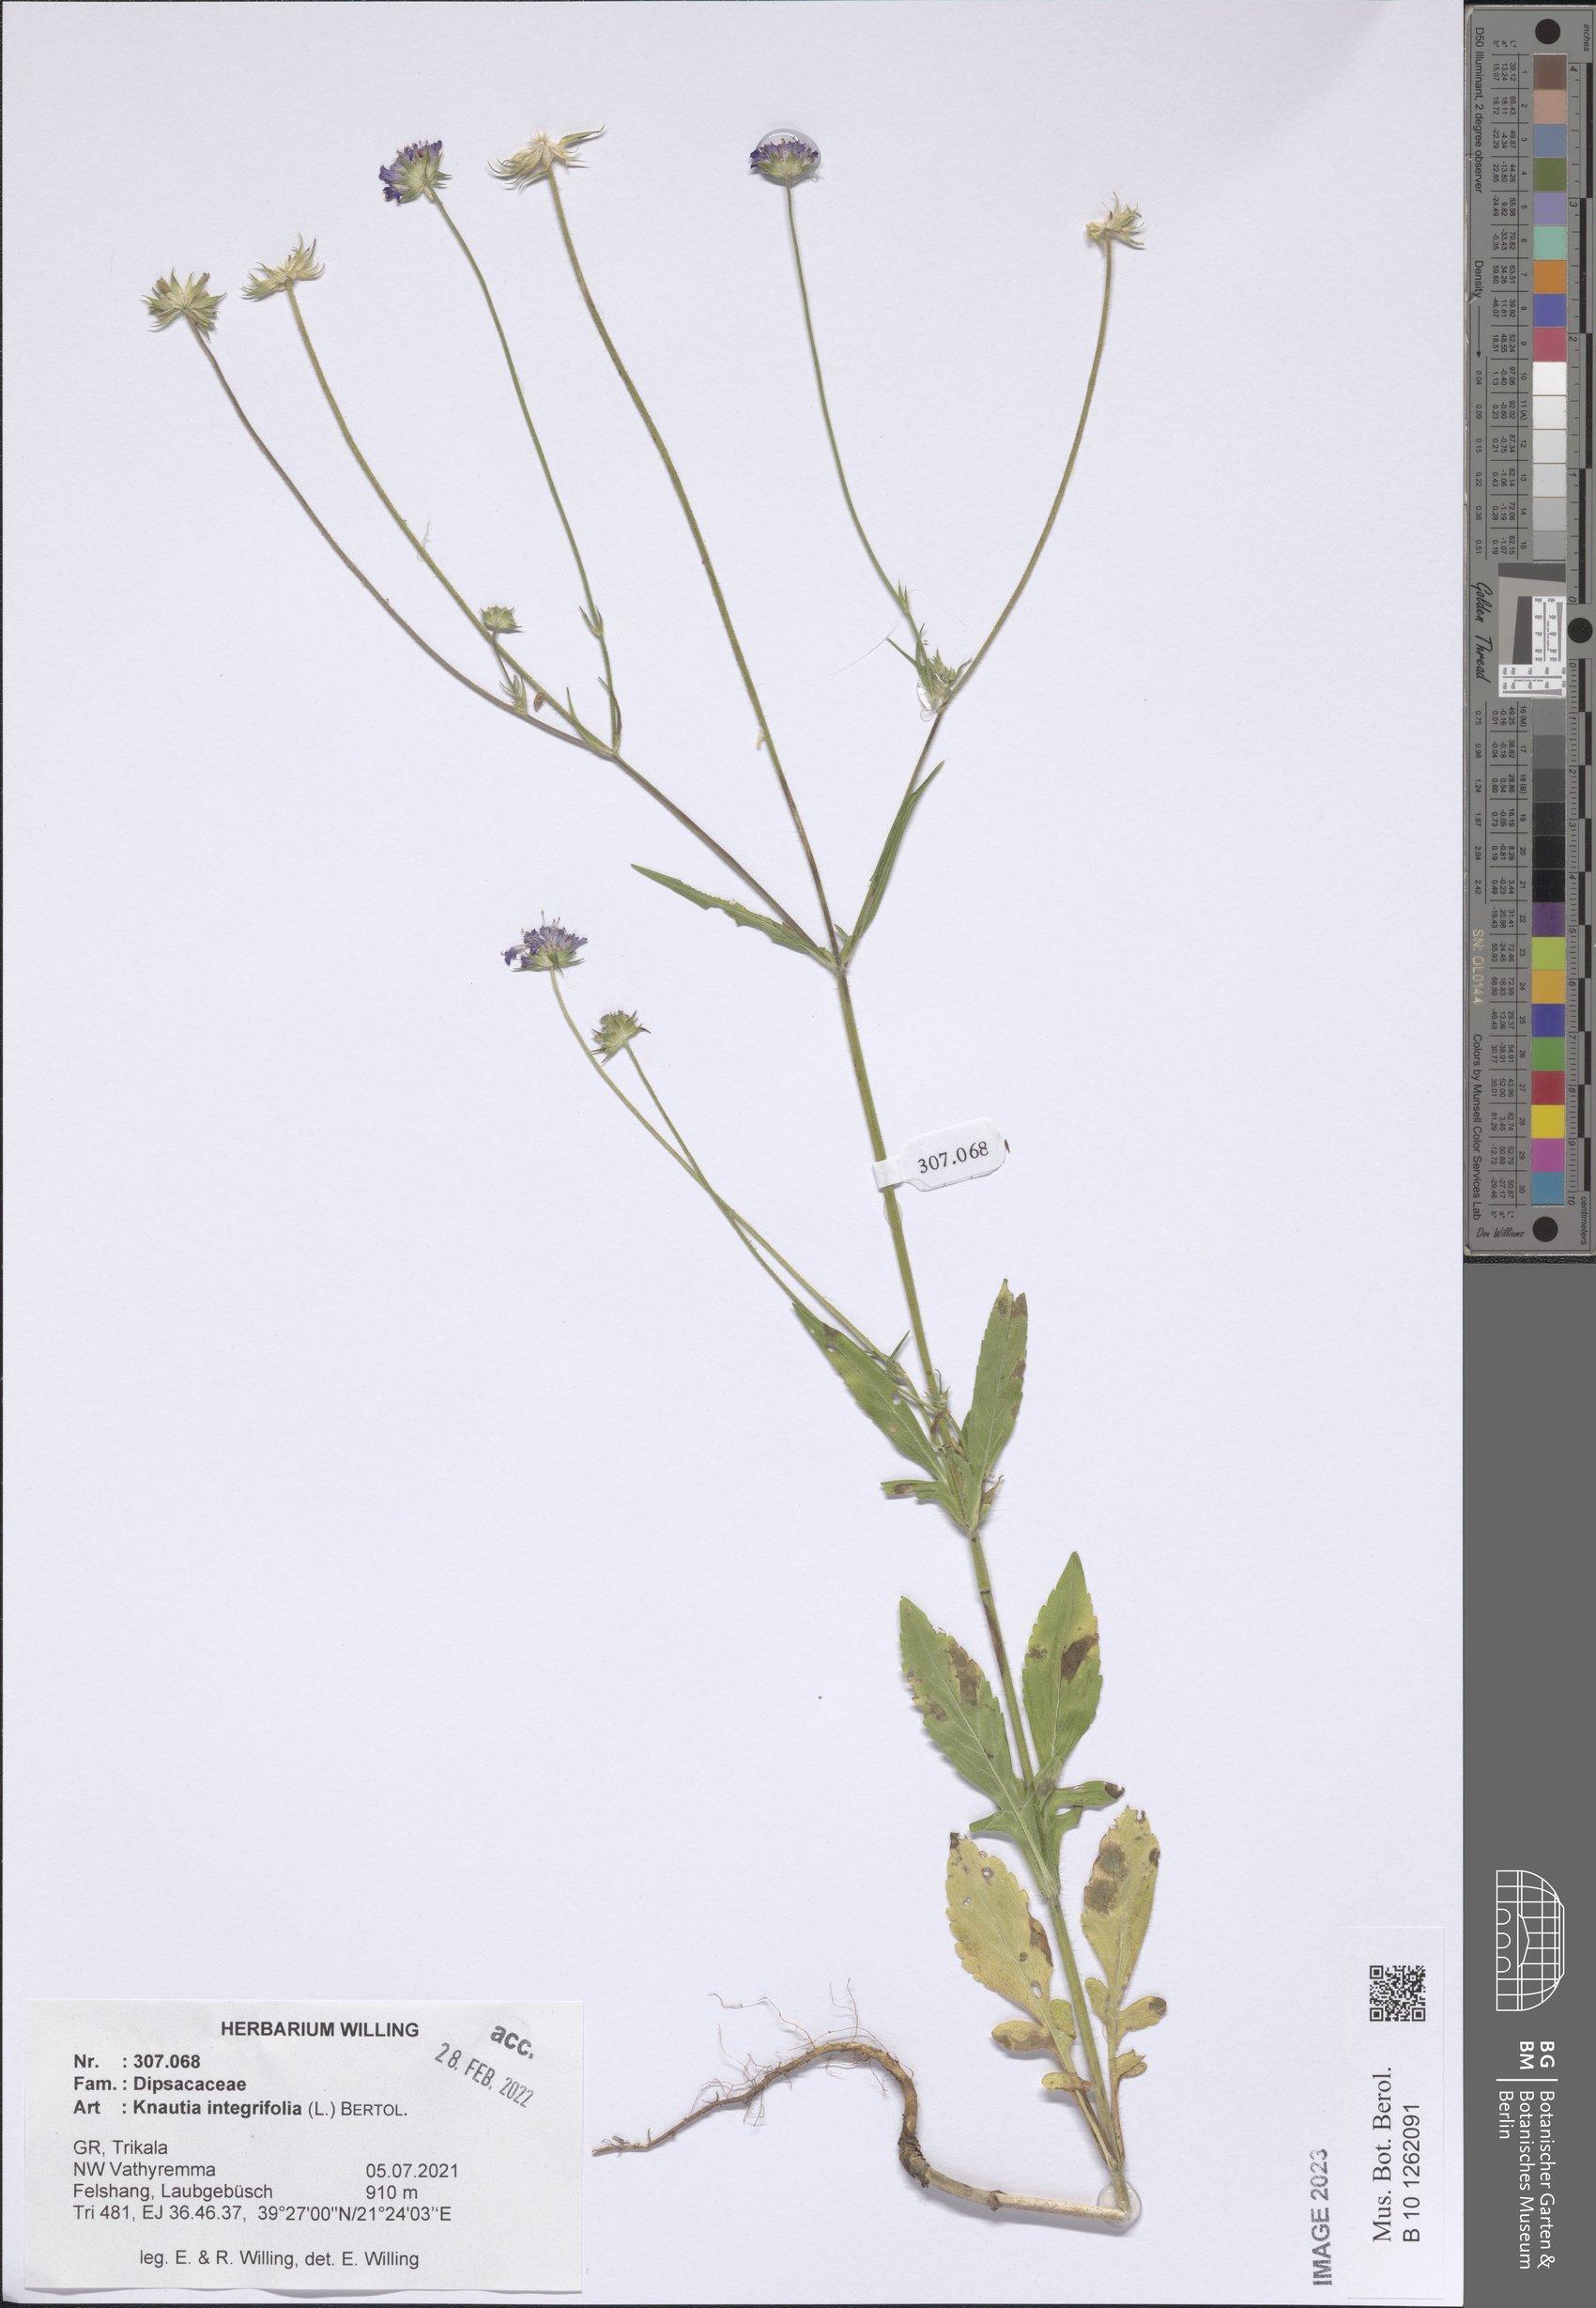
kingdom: Plantae
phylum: Tracheophyta
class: Magnoliopsida
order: Dipsacales
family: Caprifoliaceae
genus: Knautia
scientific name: Knautia integrifolia
